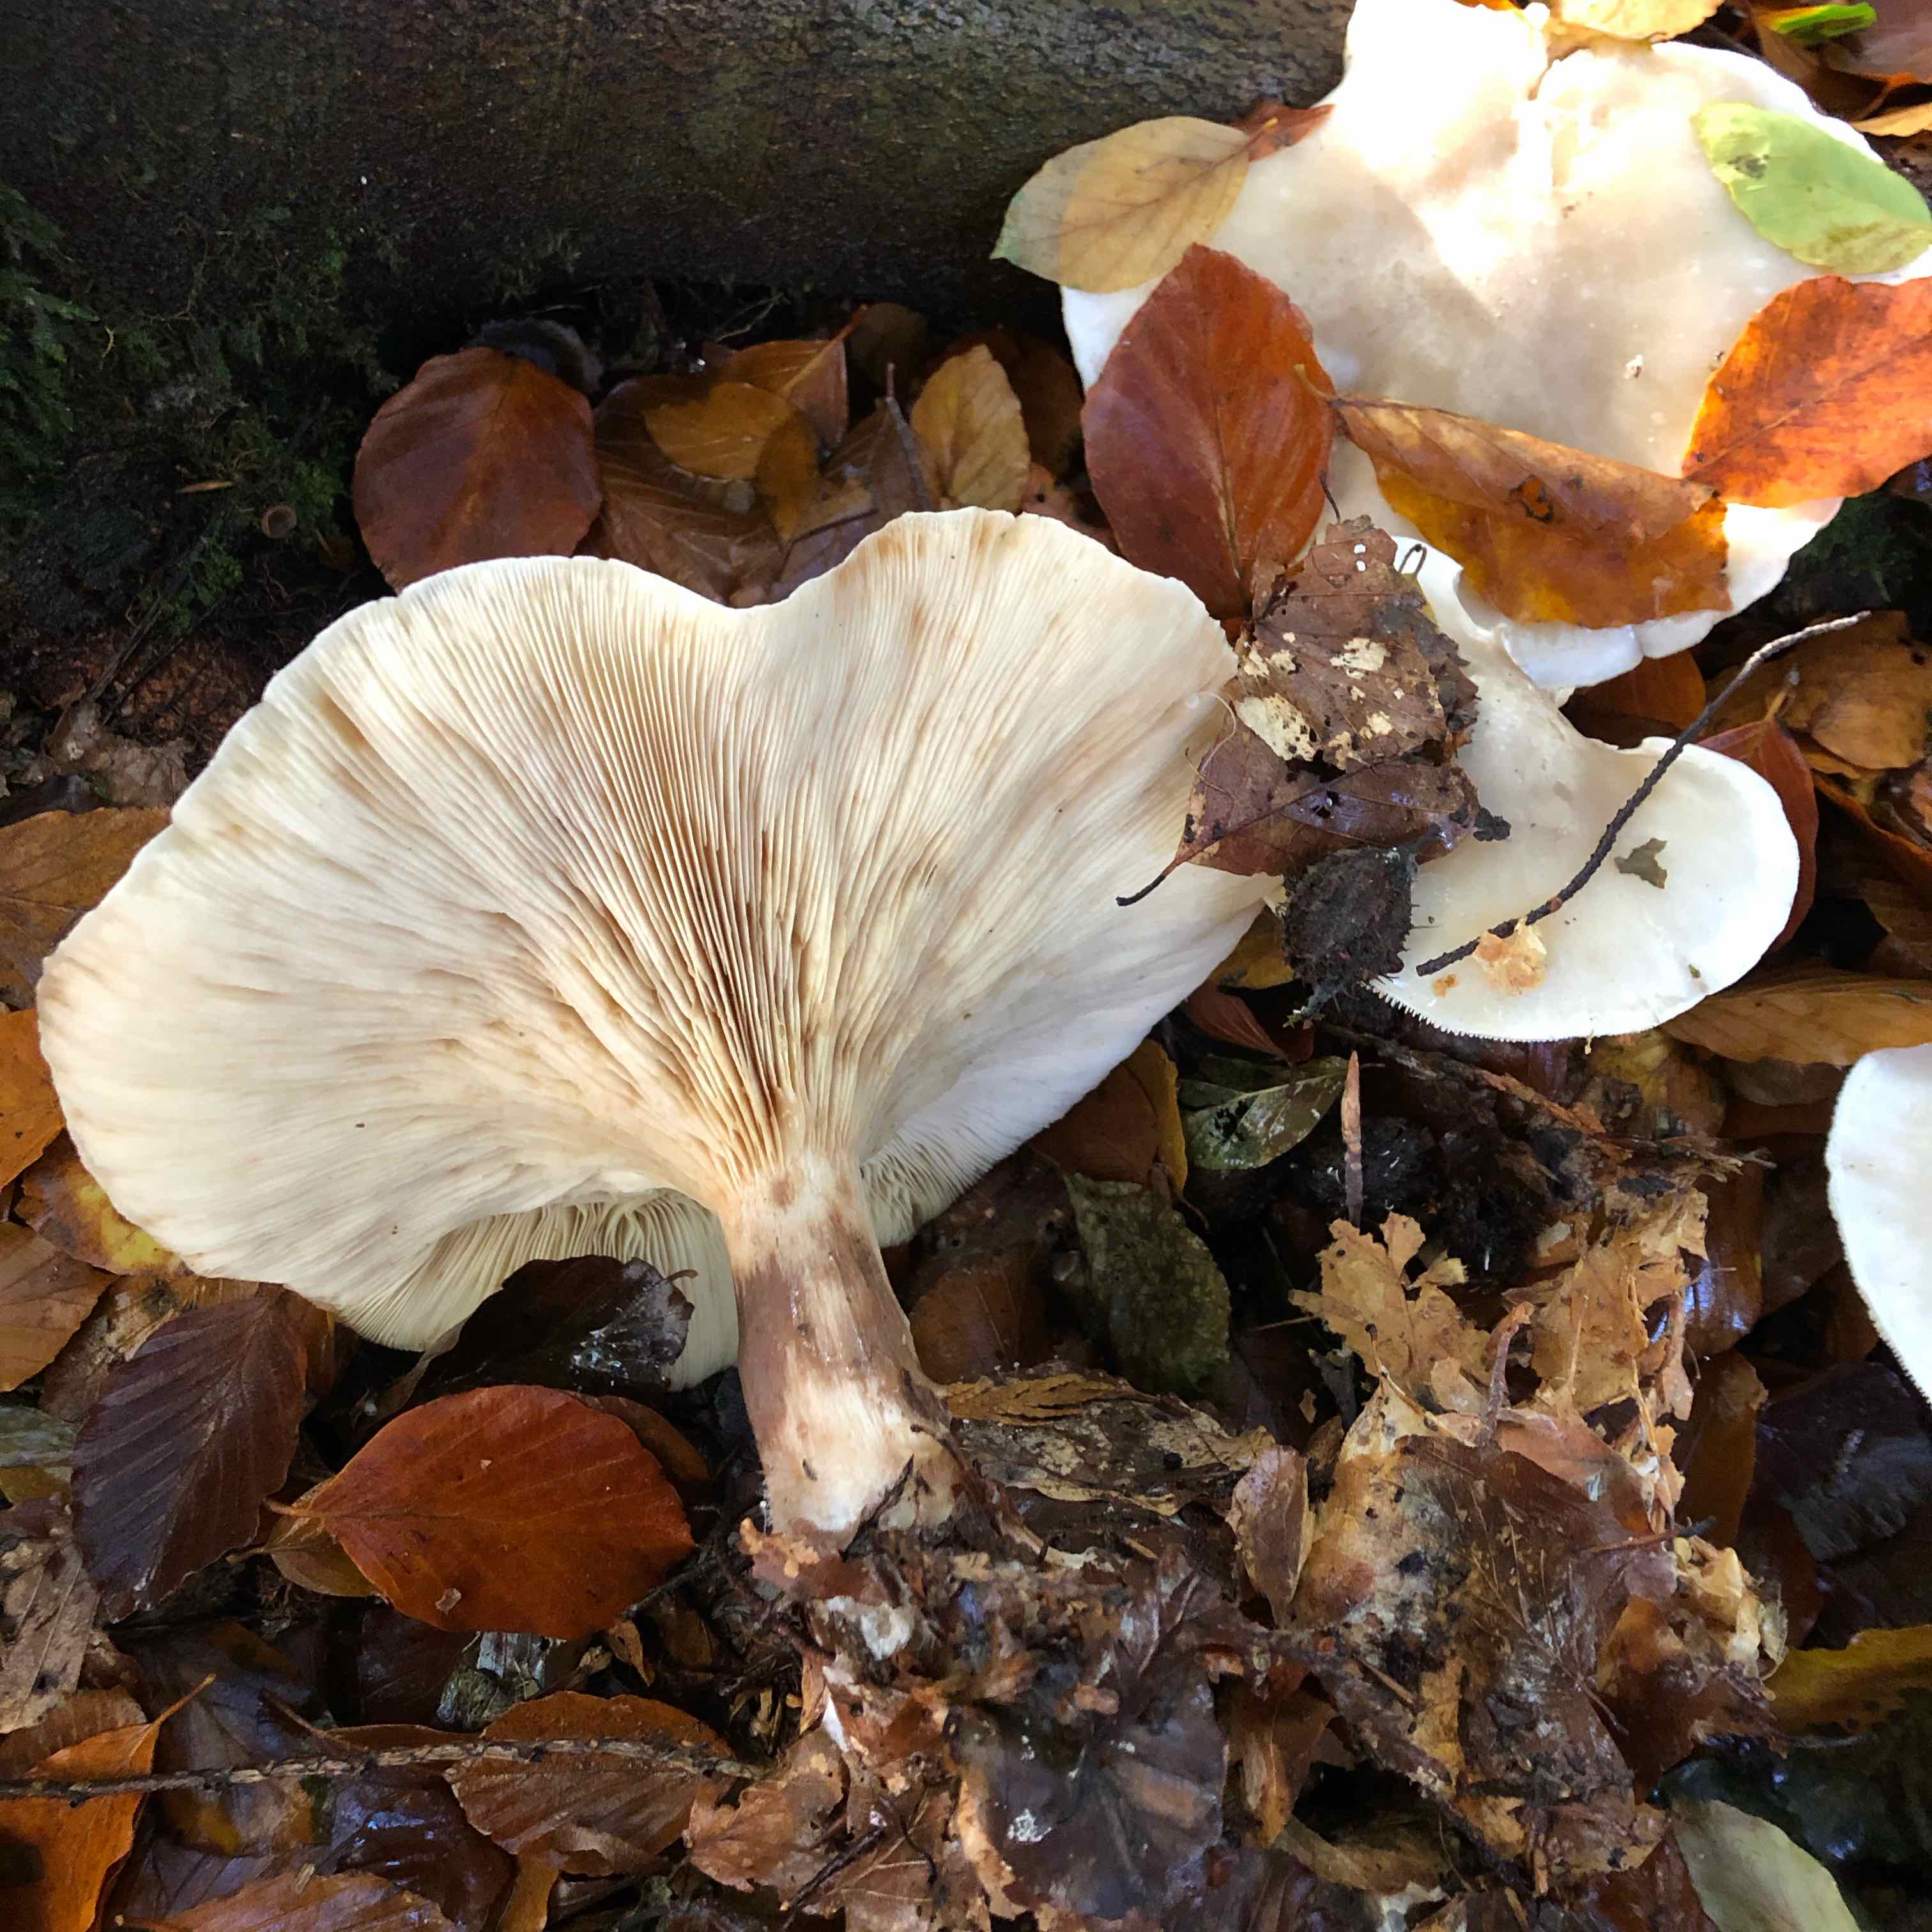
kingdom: Fungi
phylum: Basidiomycota
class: Agaricomycetes
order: Agaricales
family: Tricholomataceae
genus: Clitocybe
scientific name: Clitocybe nebularis
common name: tåge-tragthat
